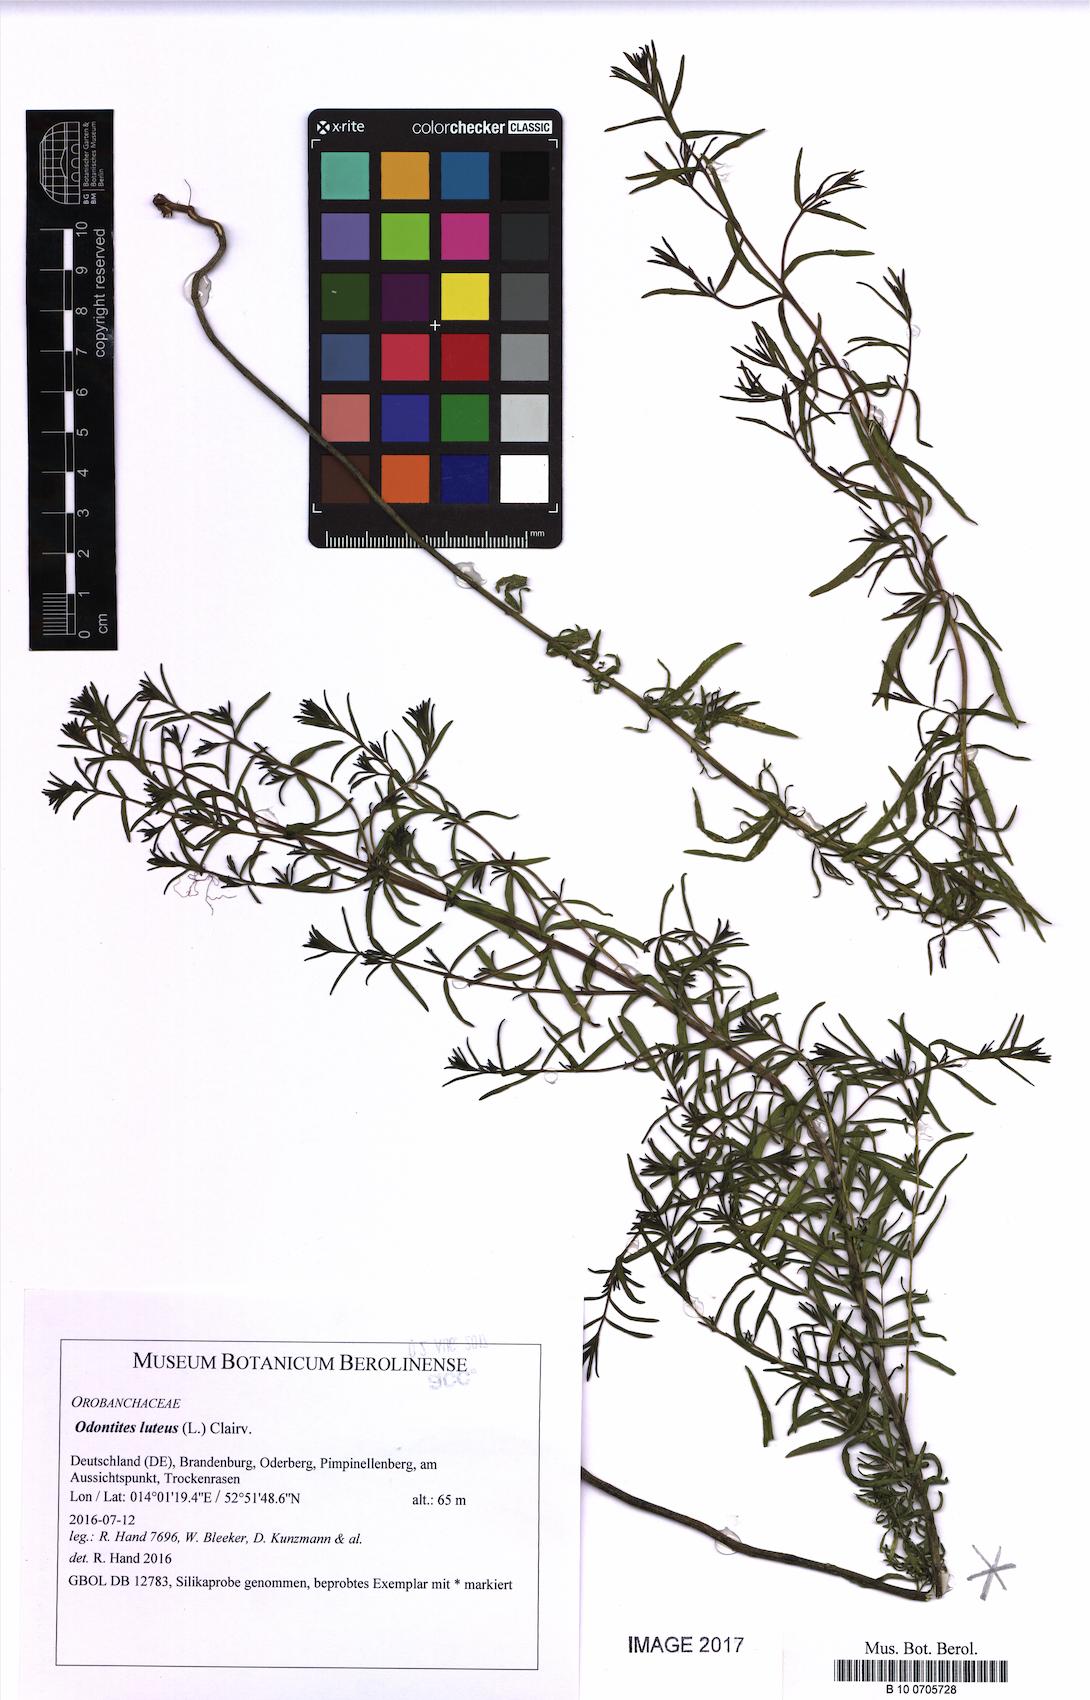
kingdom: Plantae
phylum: Tracheophyta
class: Magnoliopsida
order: Lamiales
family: Orobanchaceae
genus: Odontites
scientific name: Odontites luteus
